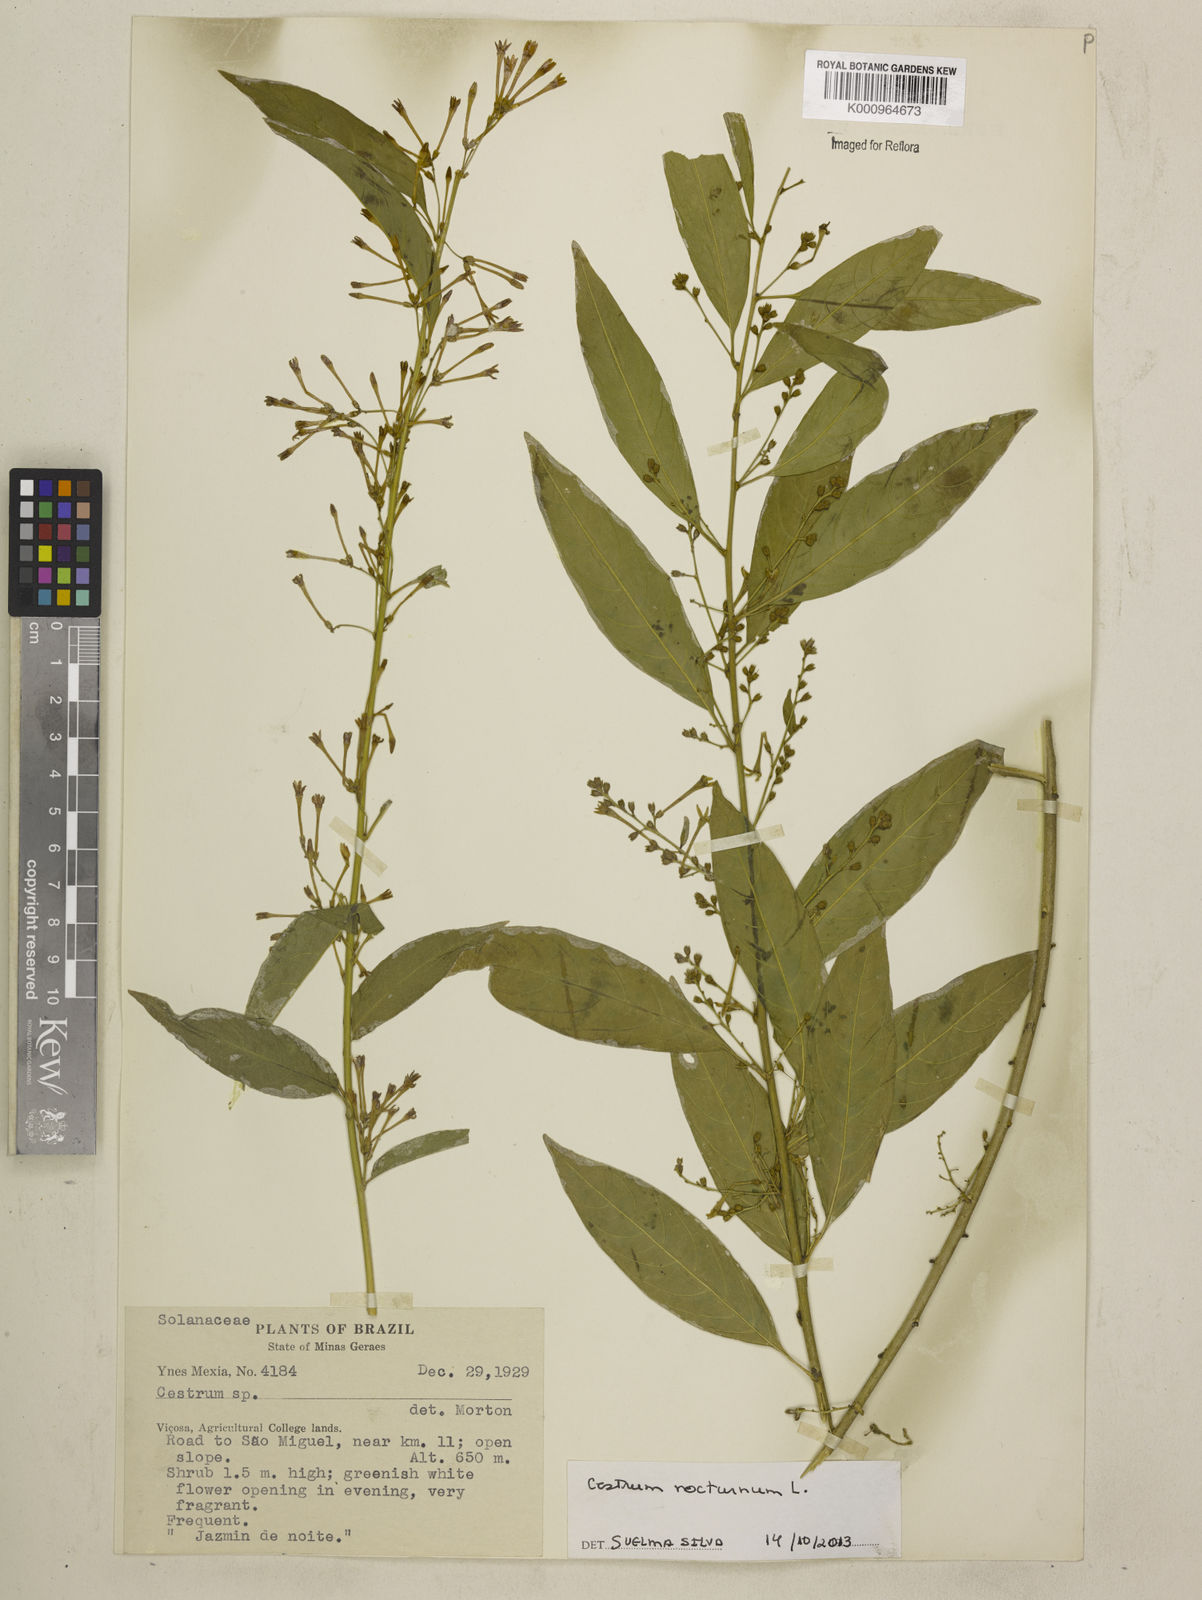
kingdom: Plantae
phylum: Tracheophyta
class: Magnoliopsida
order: Solanales
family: Solanaceae
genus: Cestrum
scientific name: Cestrum nocturnum
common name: Night jessamine
